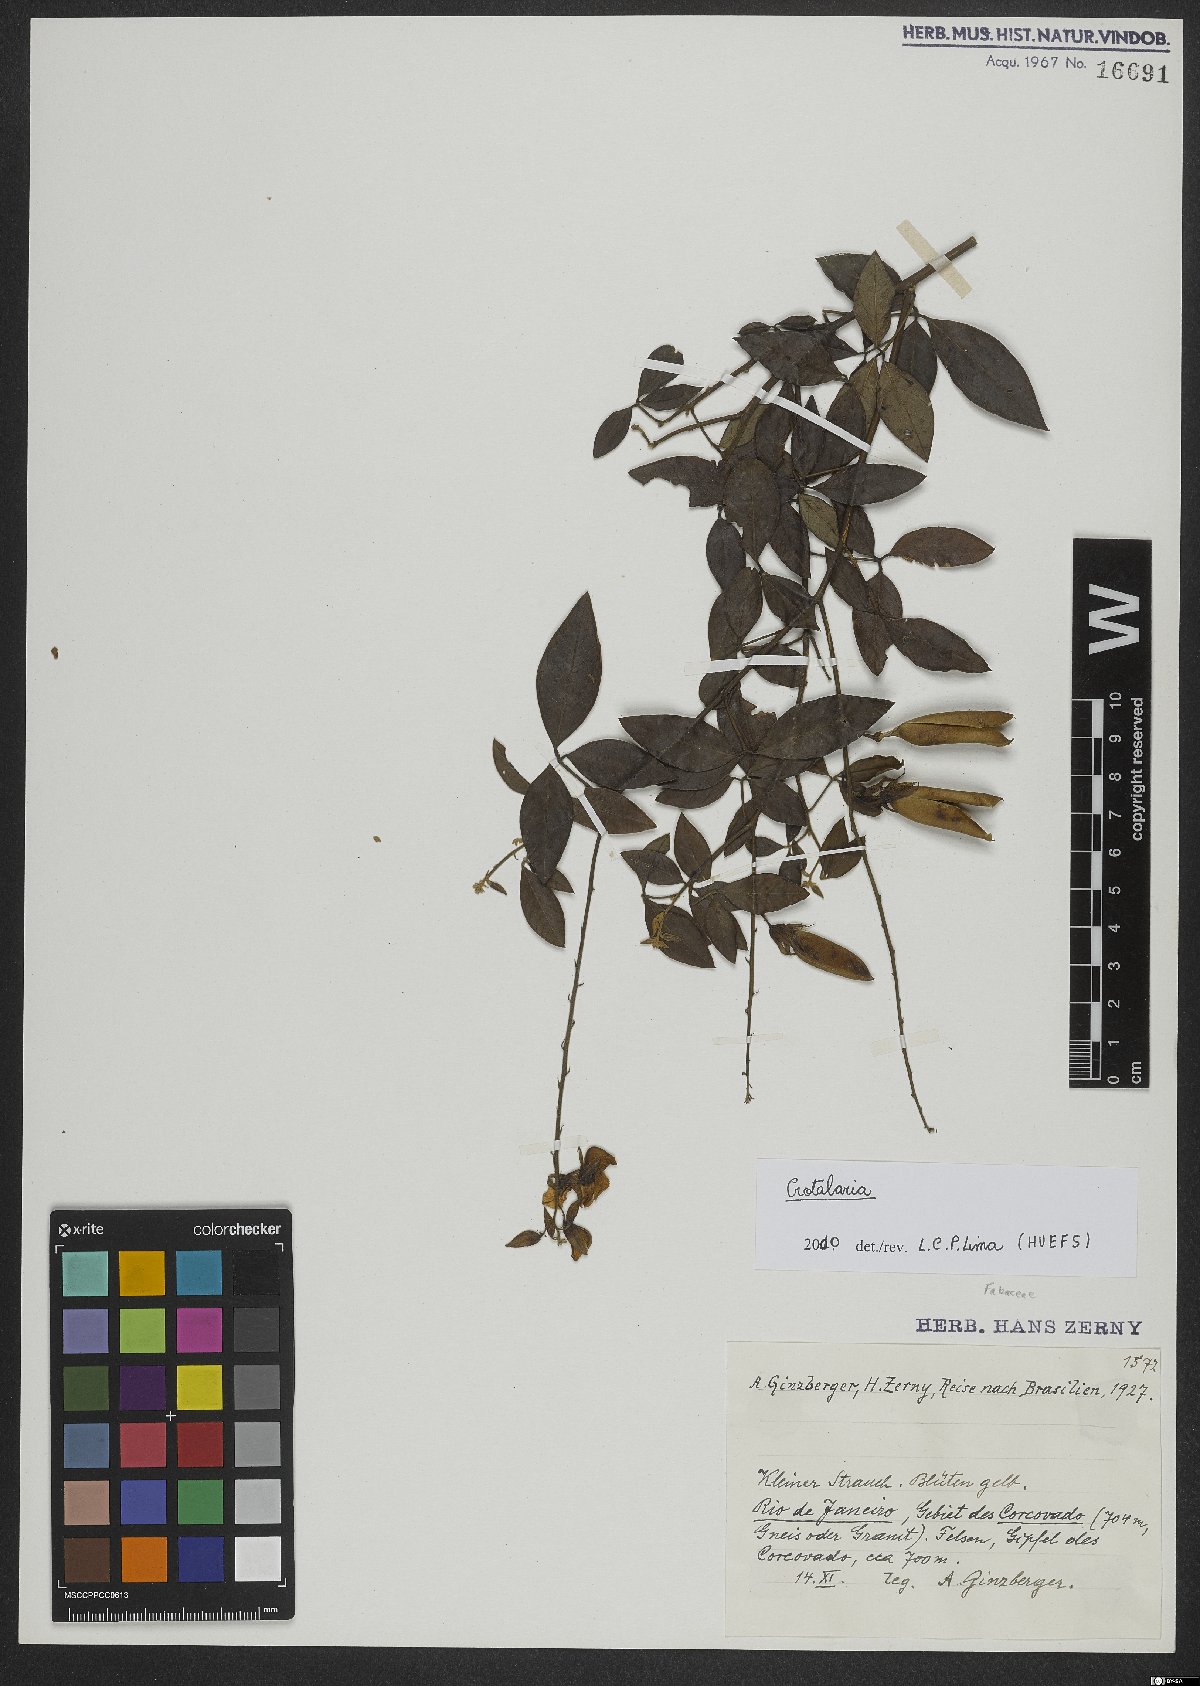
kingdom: Plantae
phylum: Tracheophyta
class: Magnoliopsida
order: Fabales
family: Fabaceae
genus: Crotalaria
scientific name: Crotalaria
